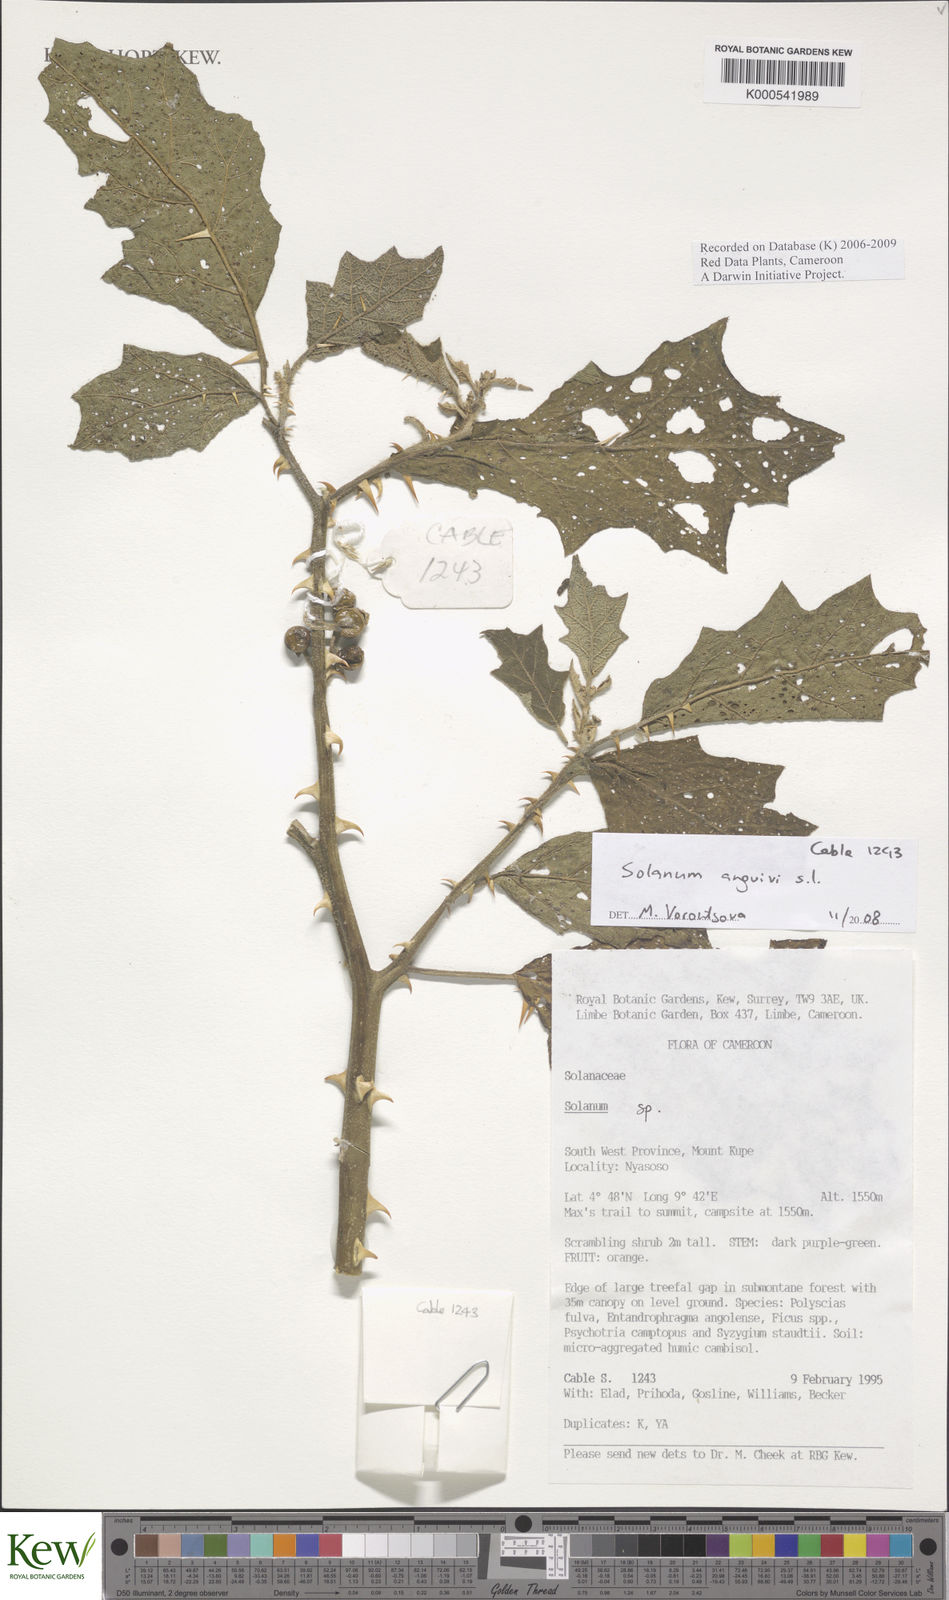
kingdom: Plantae
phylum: Tracheophyta
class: Magnoliopsida
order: Solanales
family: Solanaceae
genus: Solanum
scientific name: Solanum anguivi
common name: Forest bitterberry
